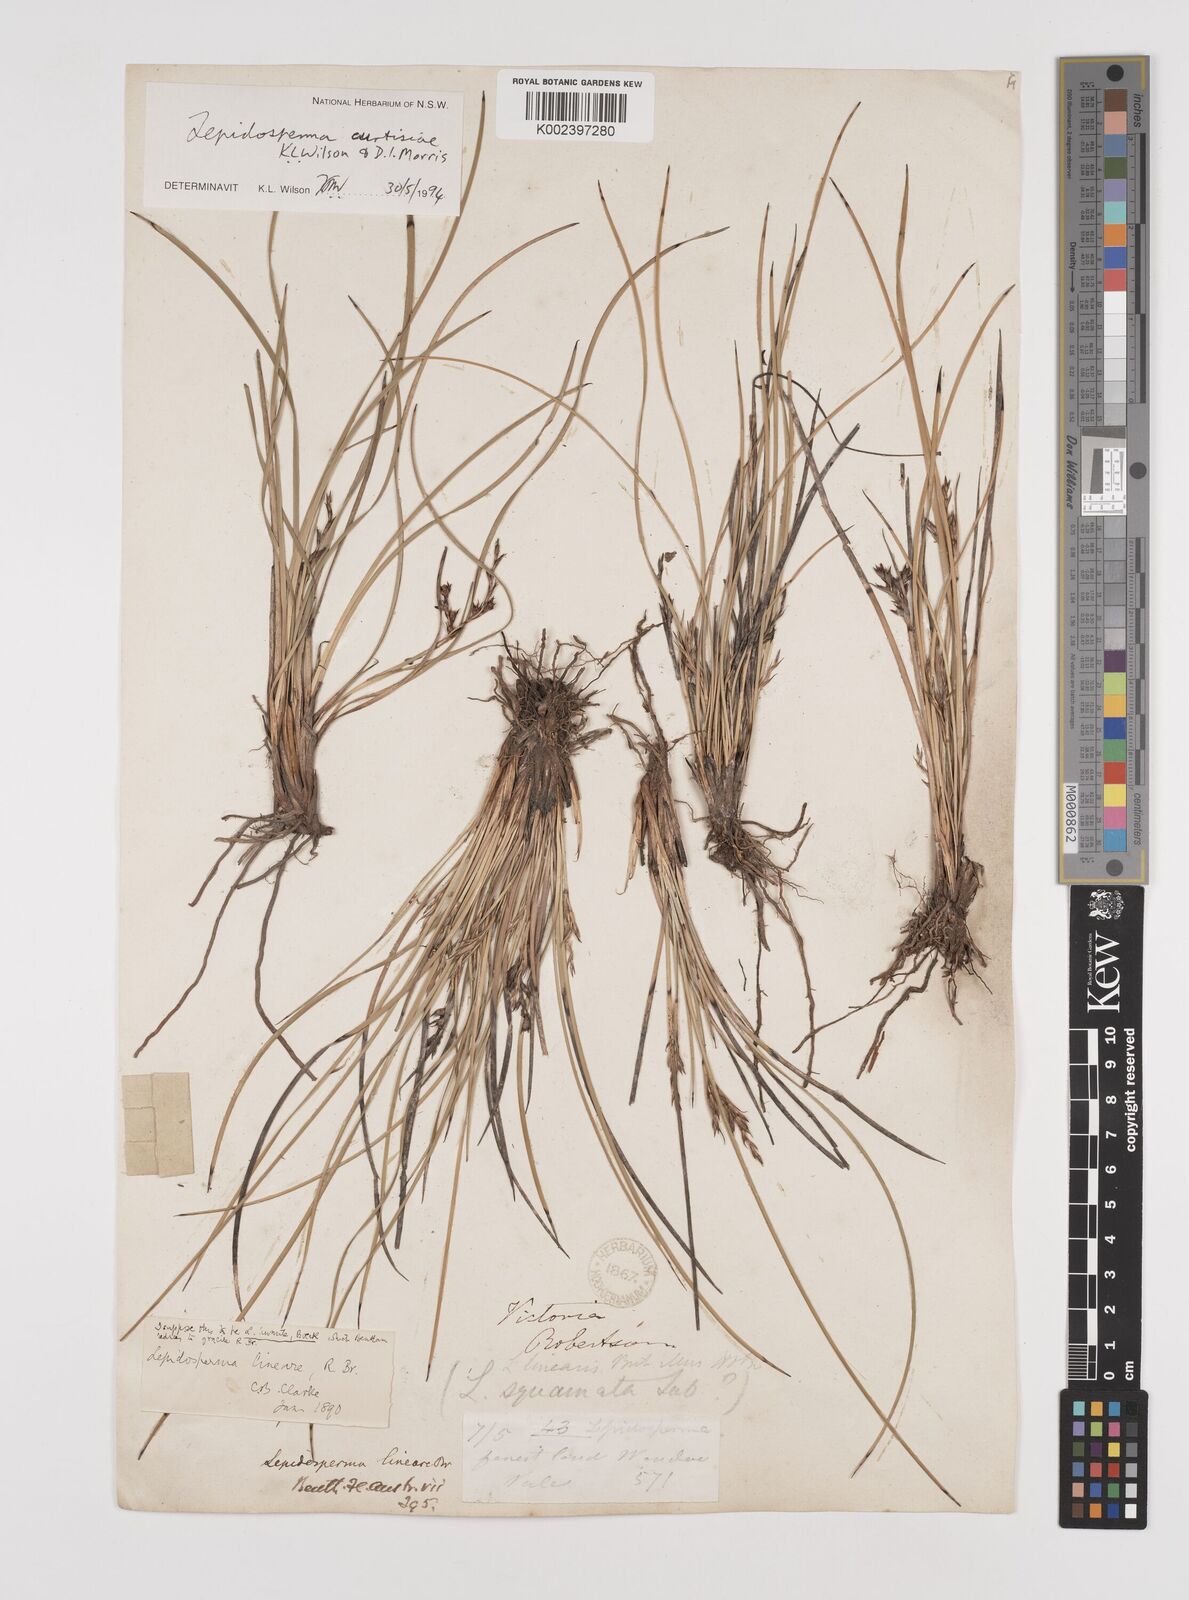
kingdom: Plantae
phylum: Tracheophyta
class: Liliopsida
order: Poales
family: Cyperaceae
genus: Lepidosperma
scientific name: Lepidosperma curtisiae
